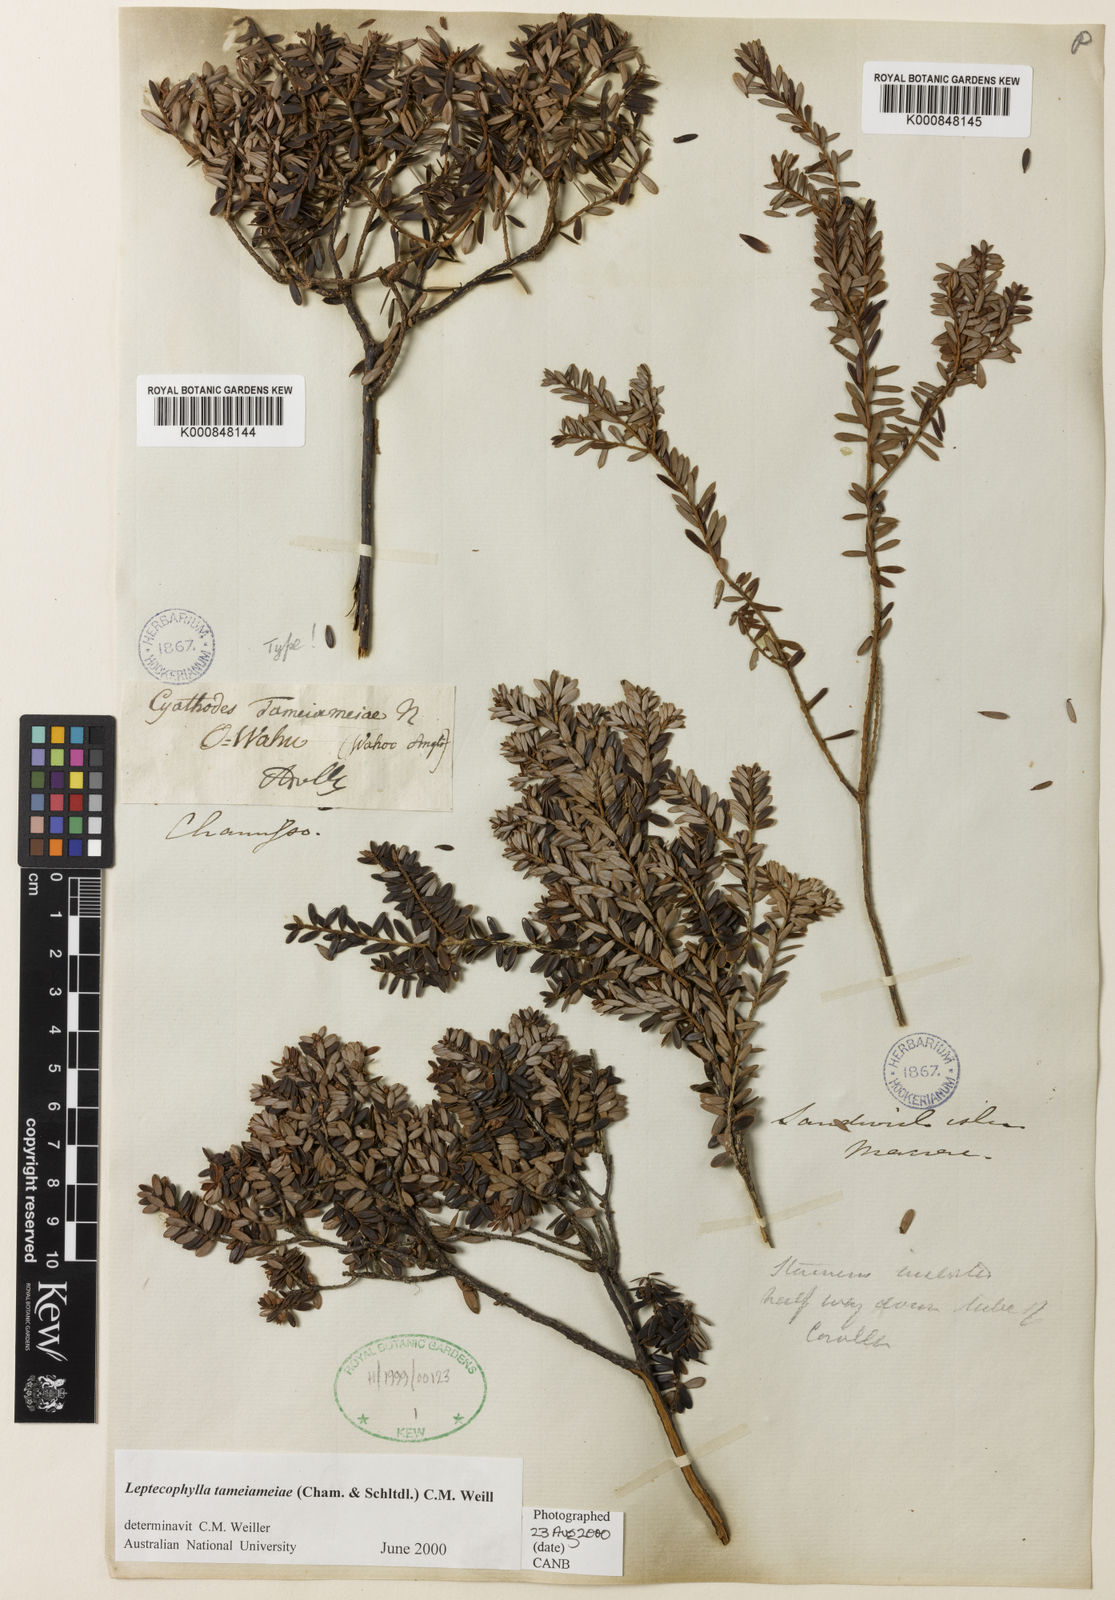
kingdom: Plantae
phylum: Tracheophyta
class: Magnoliopsida
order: Ericales
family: Ericaceae
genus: Leptecophylla
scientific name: Leptecophylla tameiameiae
